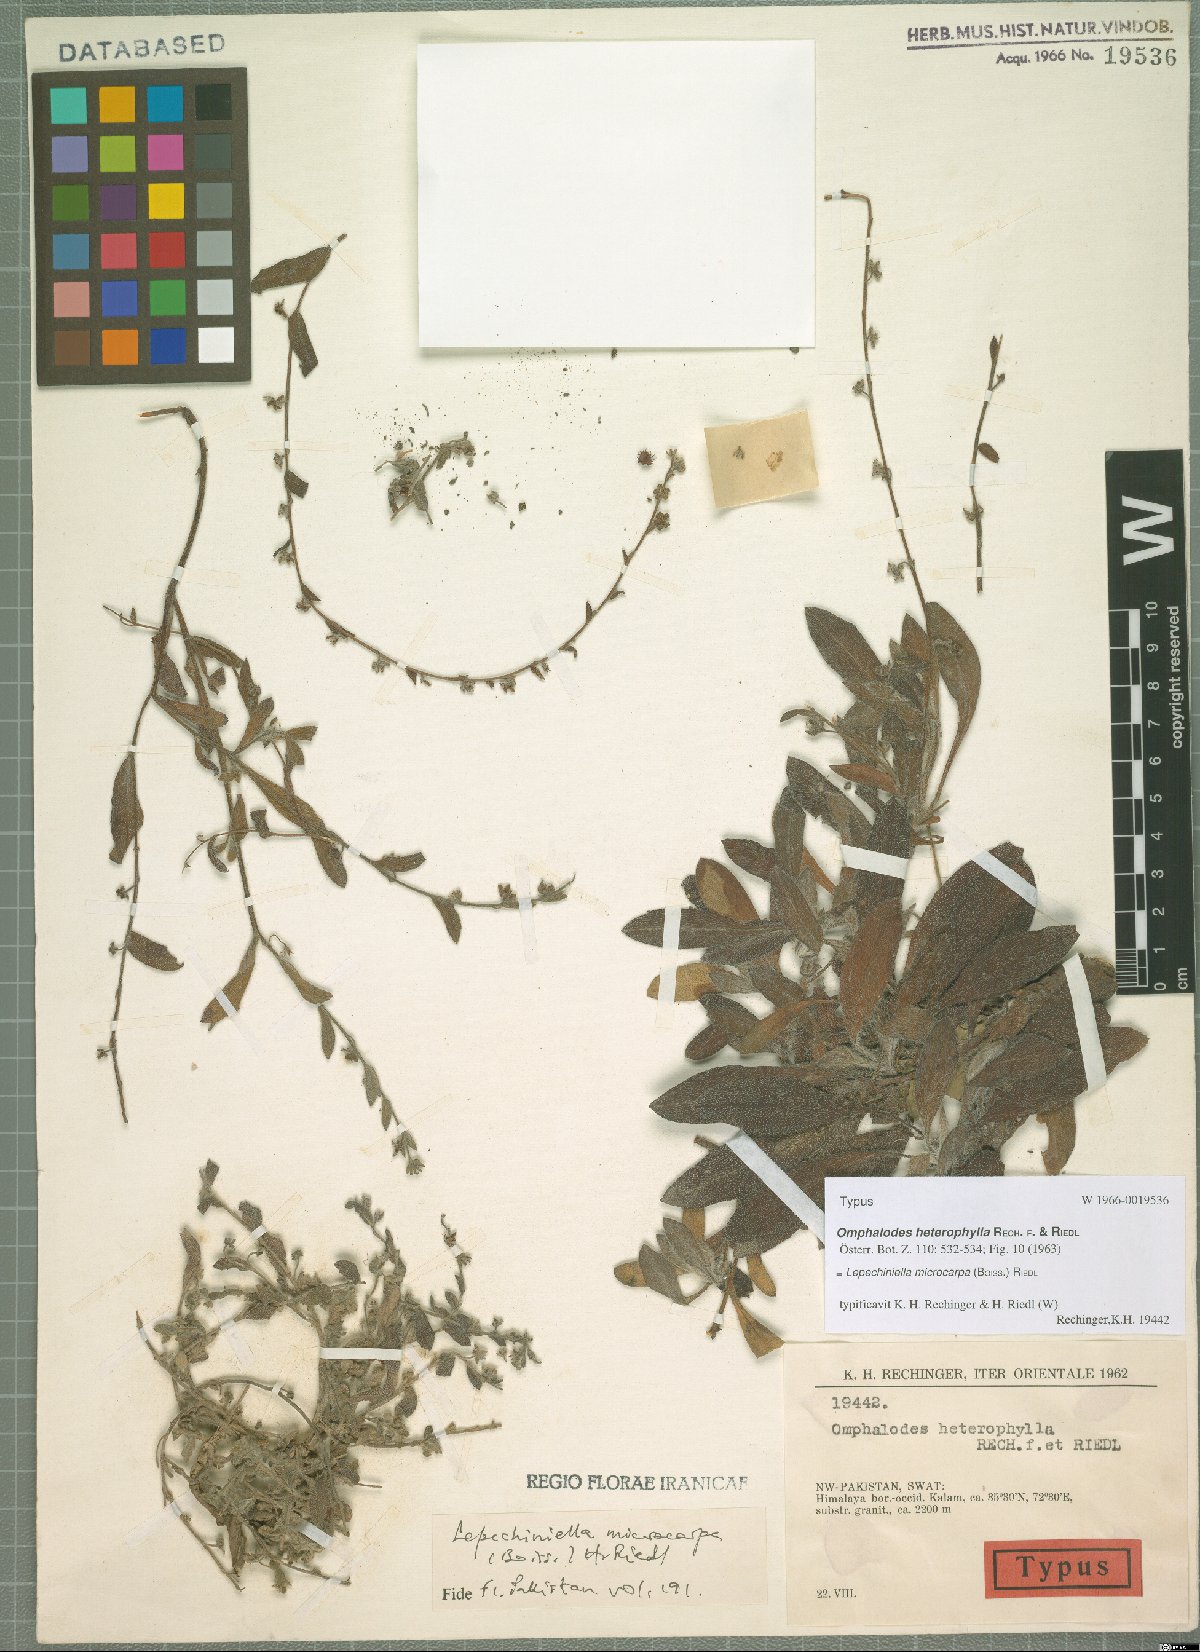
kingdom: Plantae
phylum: Tracheophyta
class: Magnoliopsida
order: Boraginales
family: Boraginaceae
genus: Lepechiniella
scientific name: Lepechiniella microcarpa
